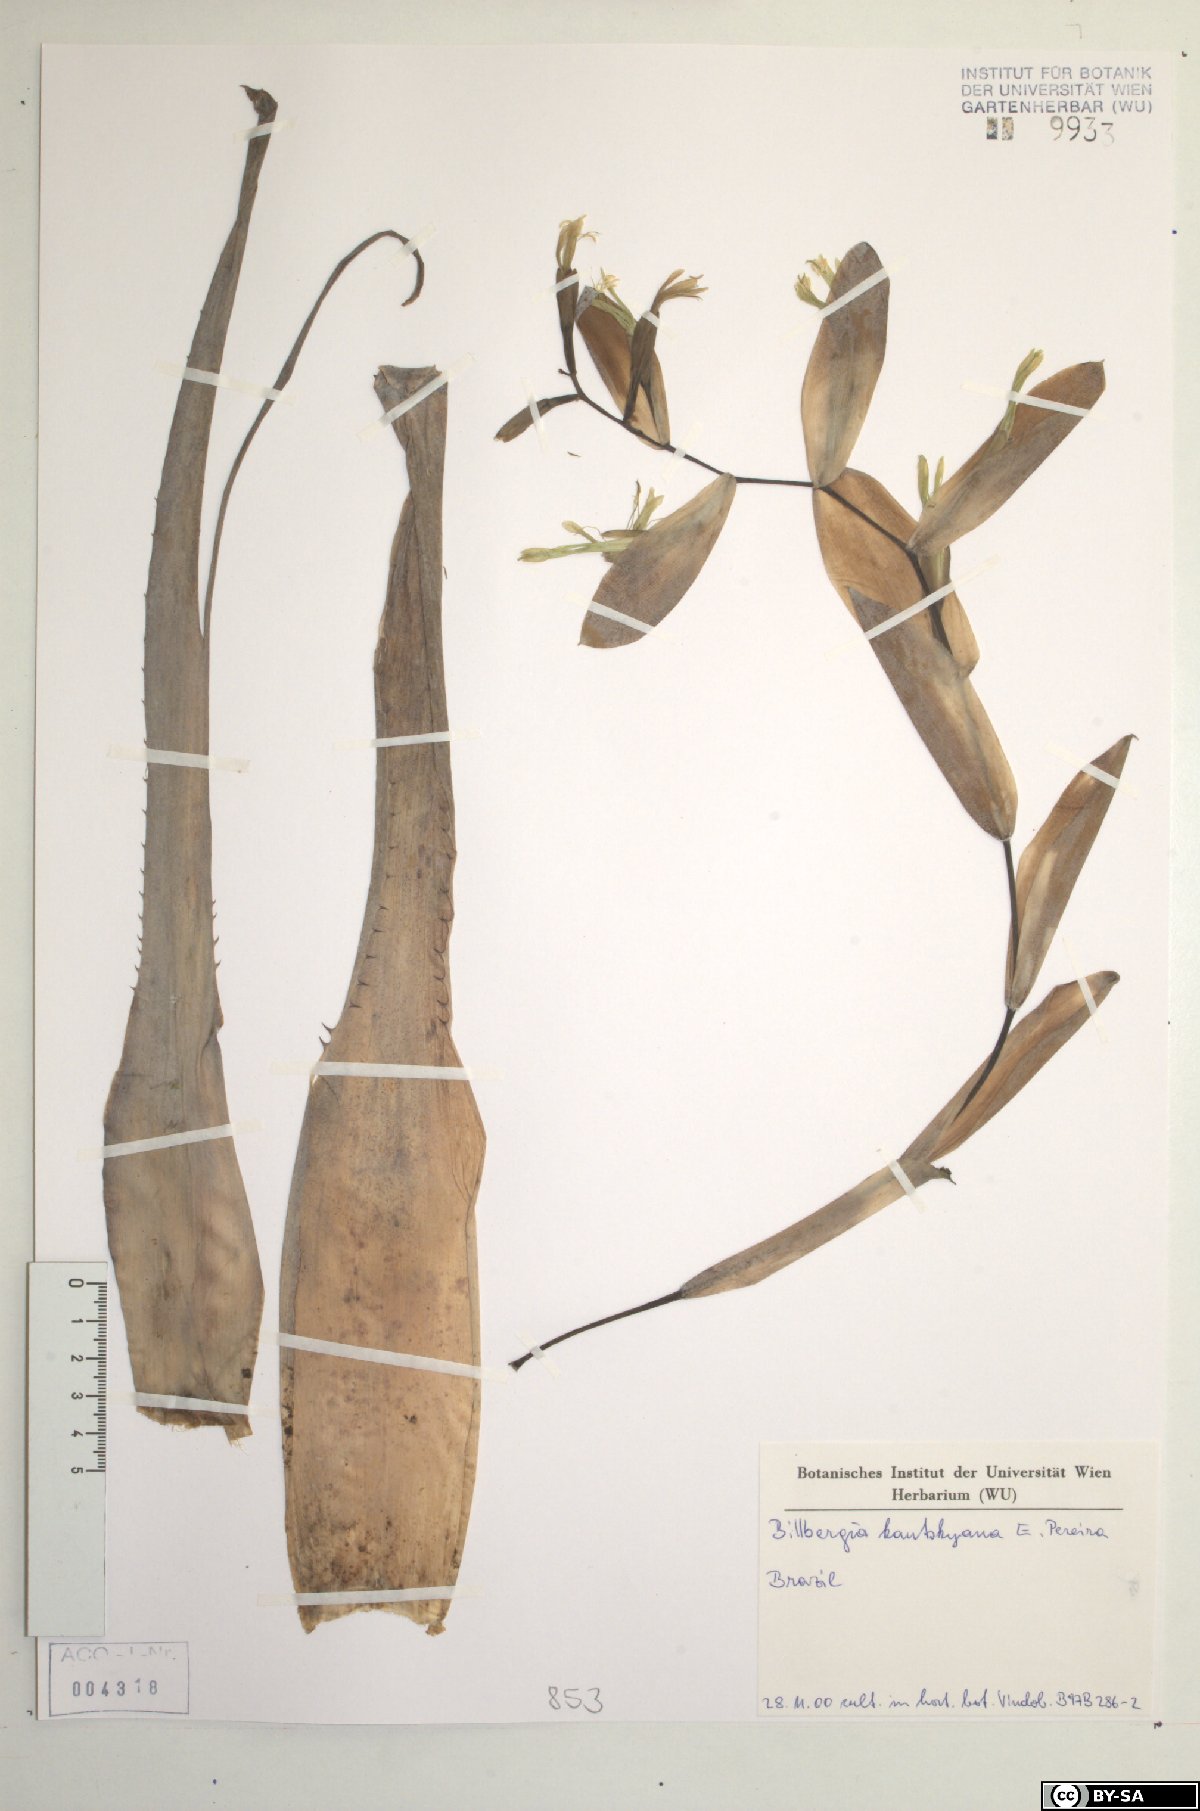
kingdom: Plantae
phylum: Tracheophyta
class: Liliopsida
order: Poales
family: Bromeliaceae
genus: Billbergia
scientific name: Billbergia kautskyana
